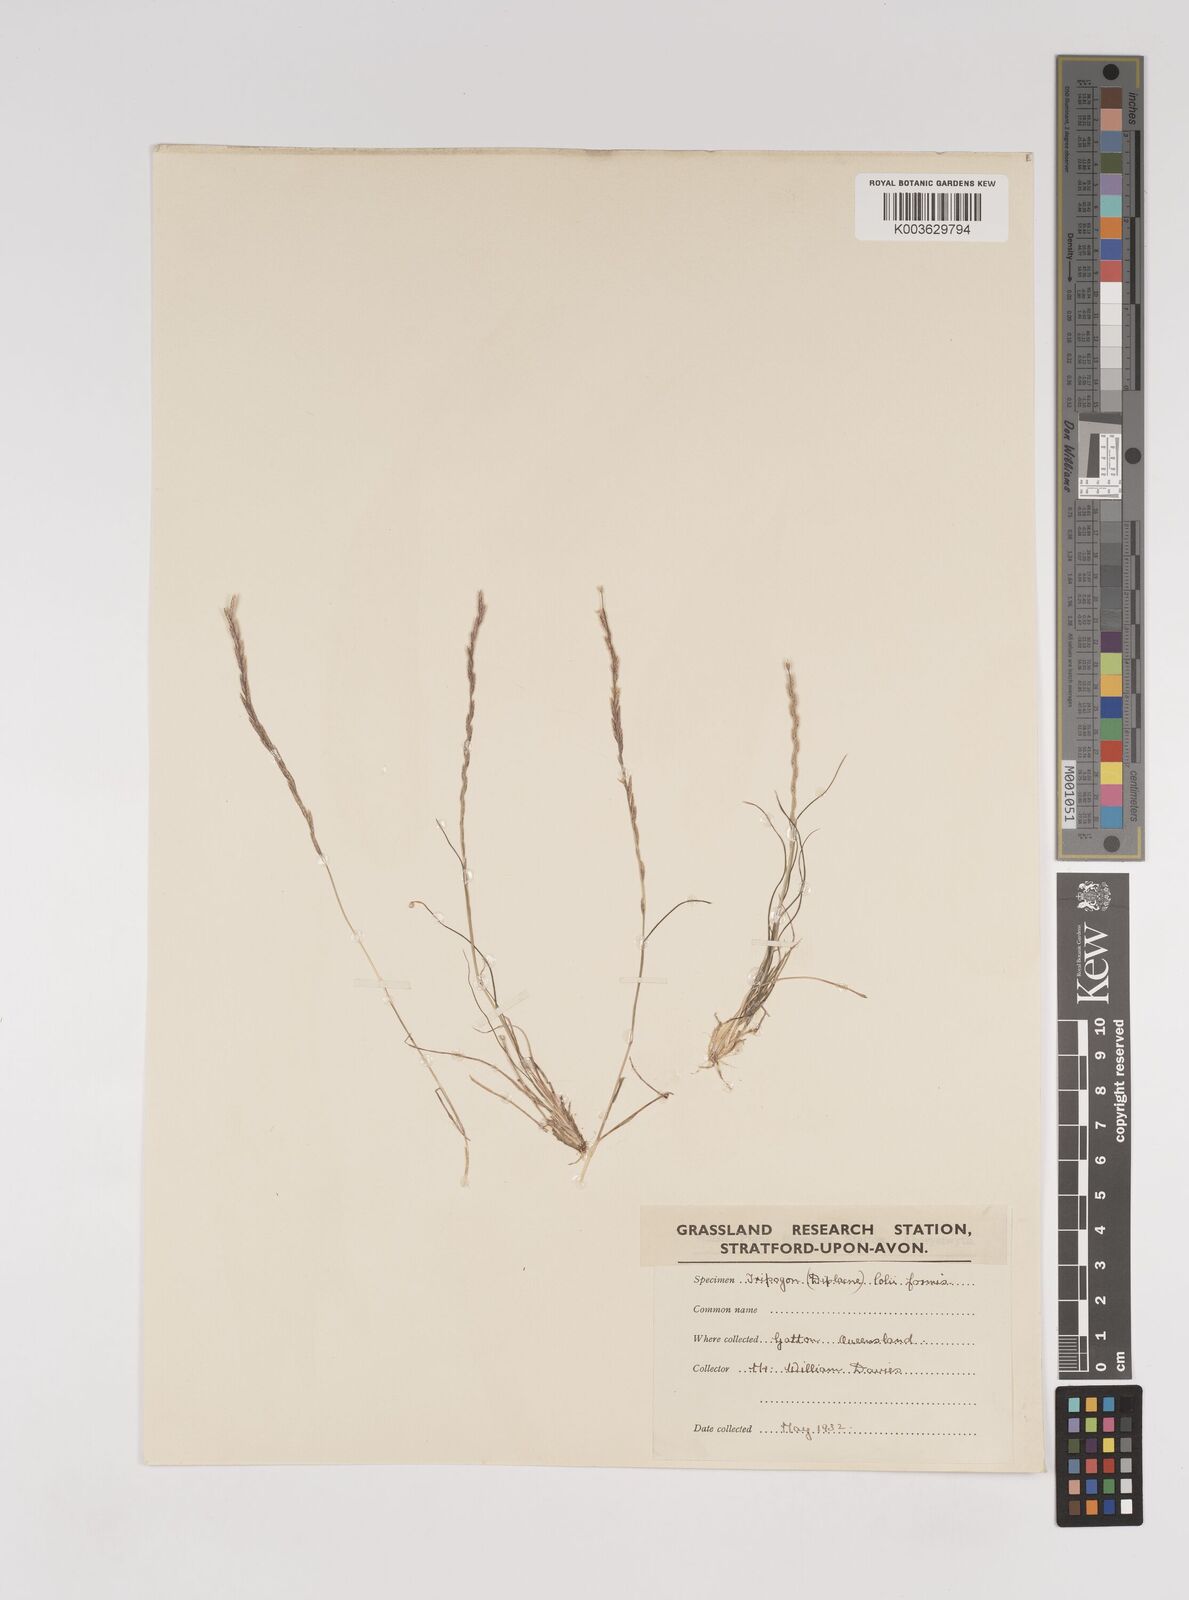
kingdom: Plantae
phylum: Tracheophyta
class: Liliopsida
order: Poales
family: Poaceae
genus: Tripogonella
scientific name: Tripogonella loliiformis
